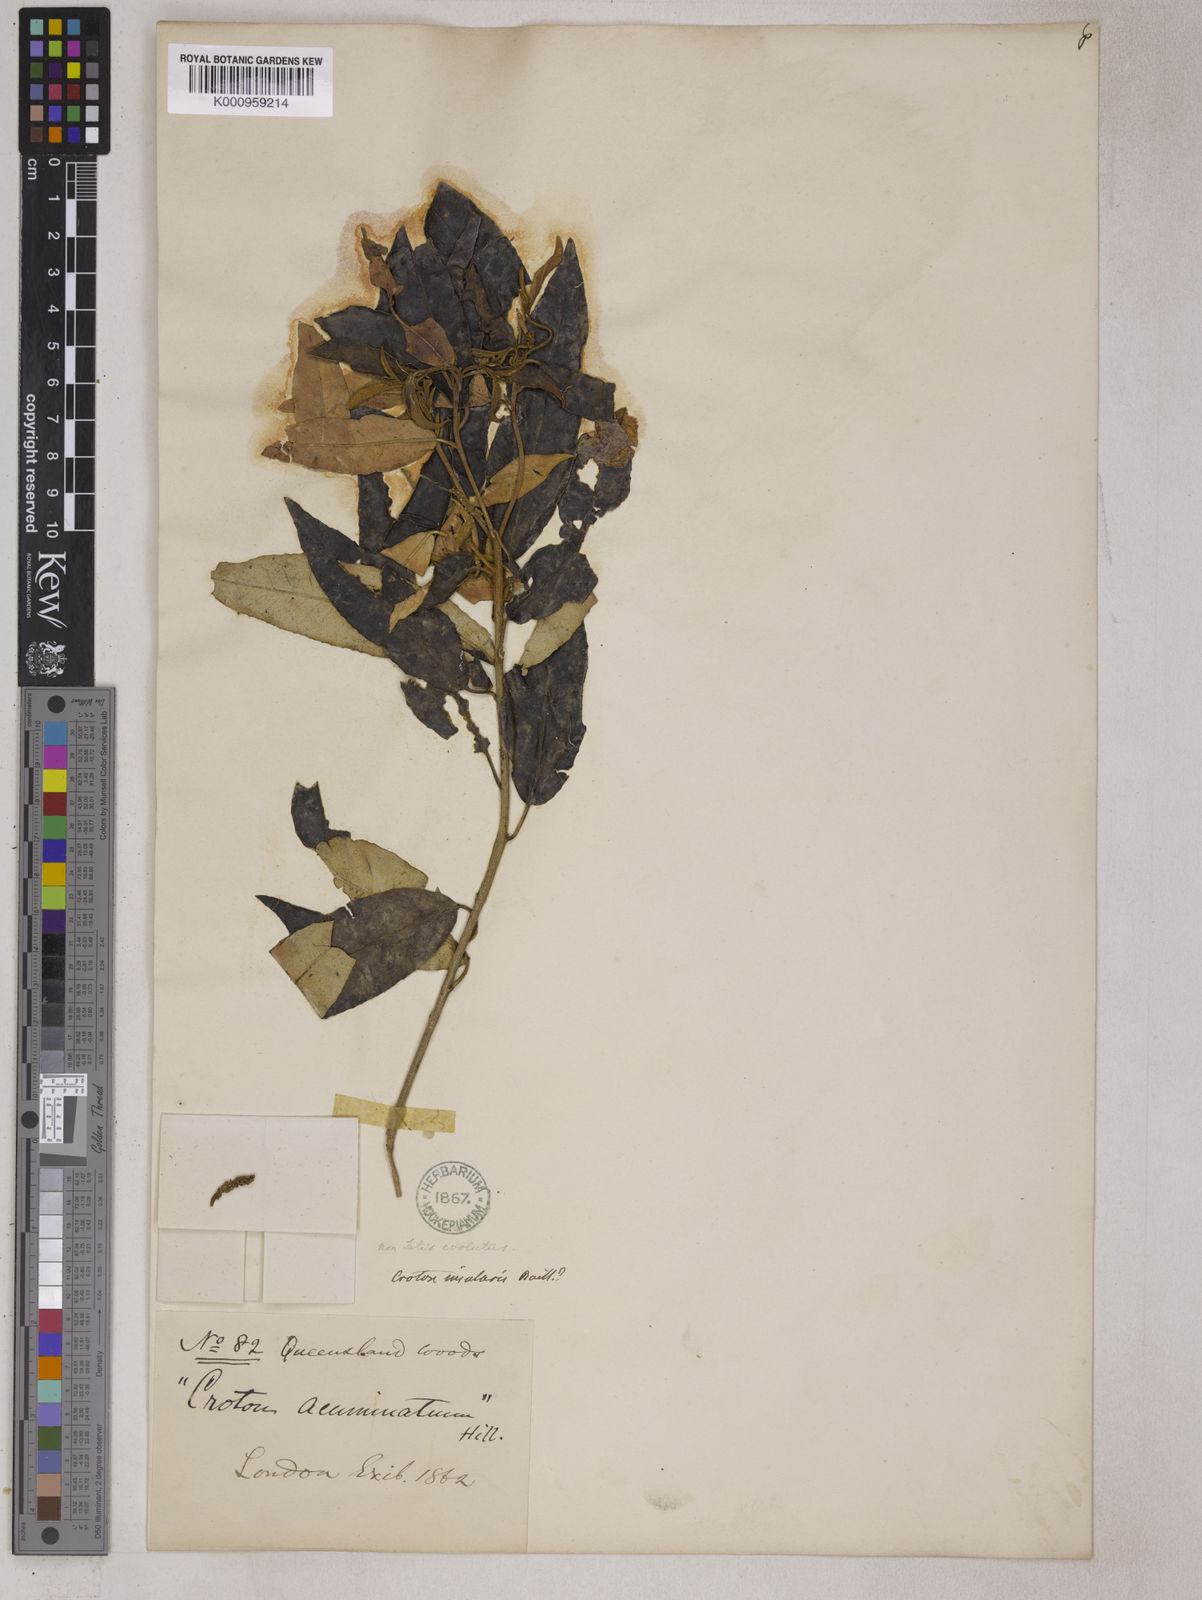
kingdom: Plantae
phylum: Tracheophyta
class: Magnoliopsida
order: Malpighiales
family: Euphorbiaceae
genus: Croton
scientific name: Croton stigmatosus
